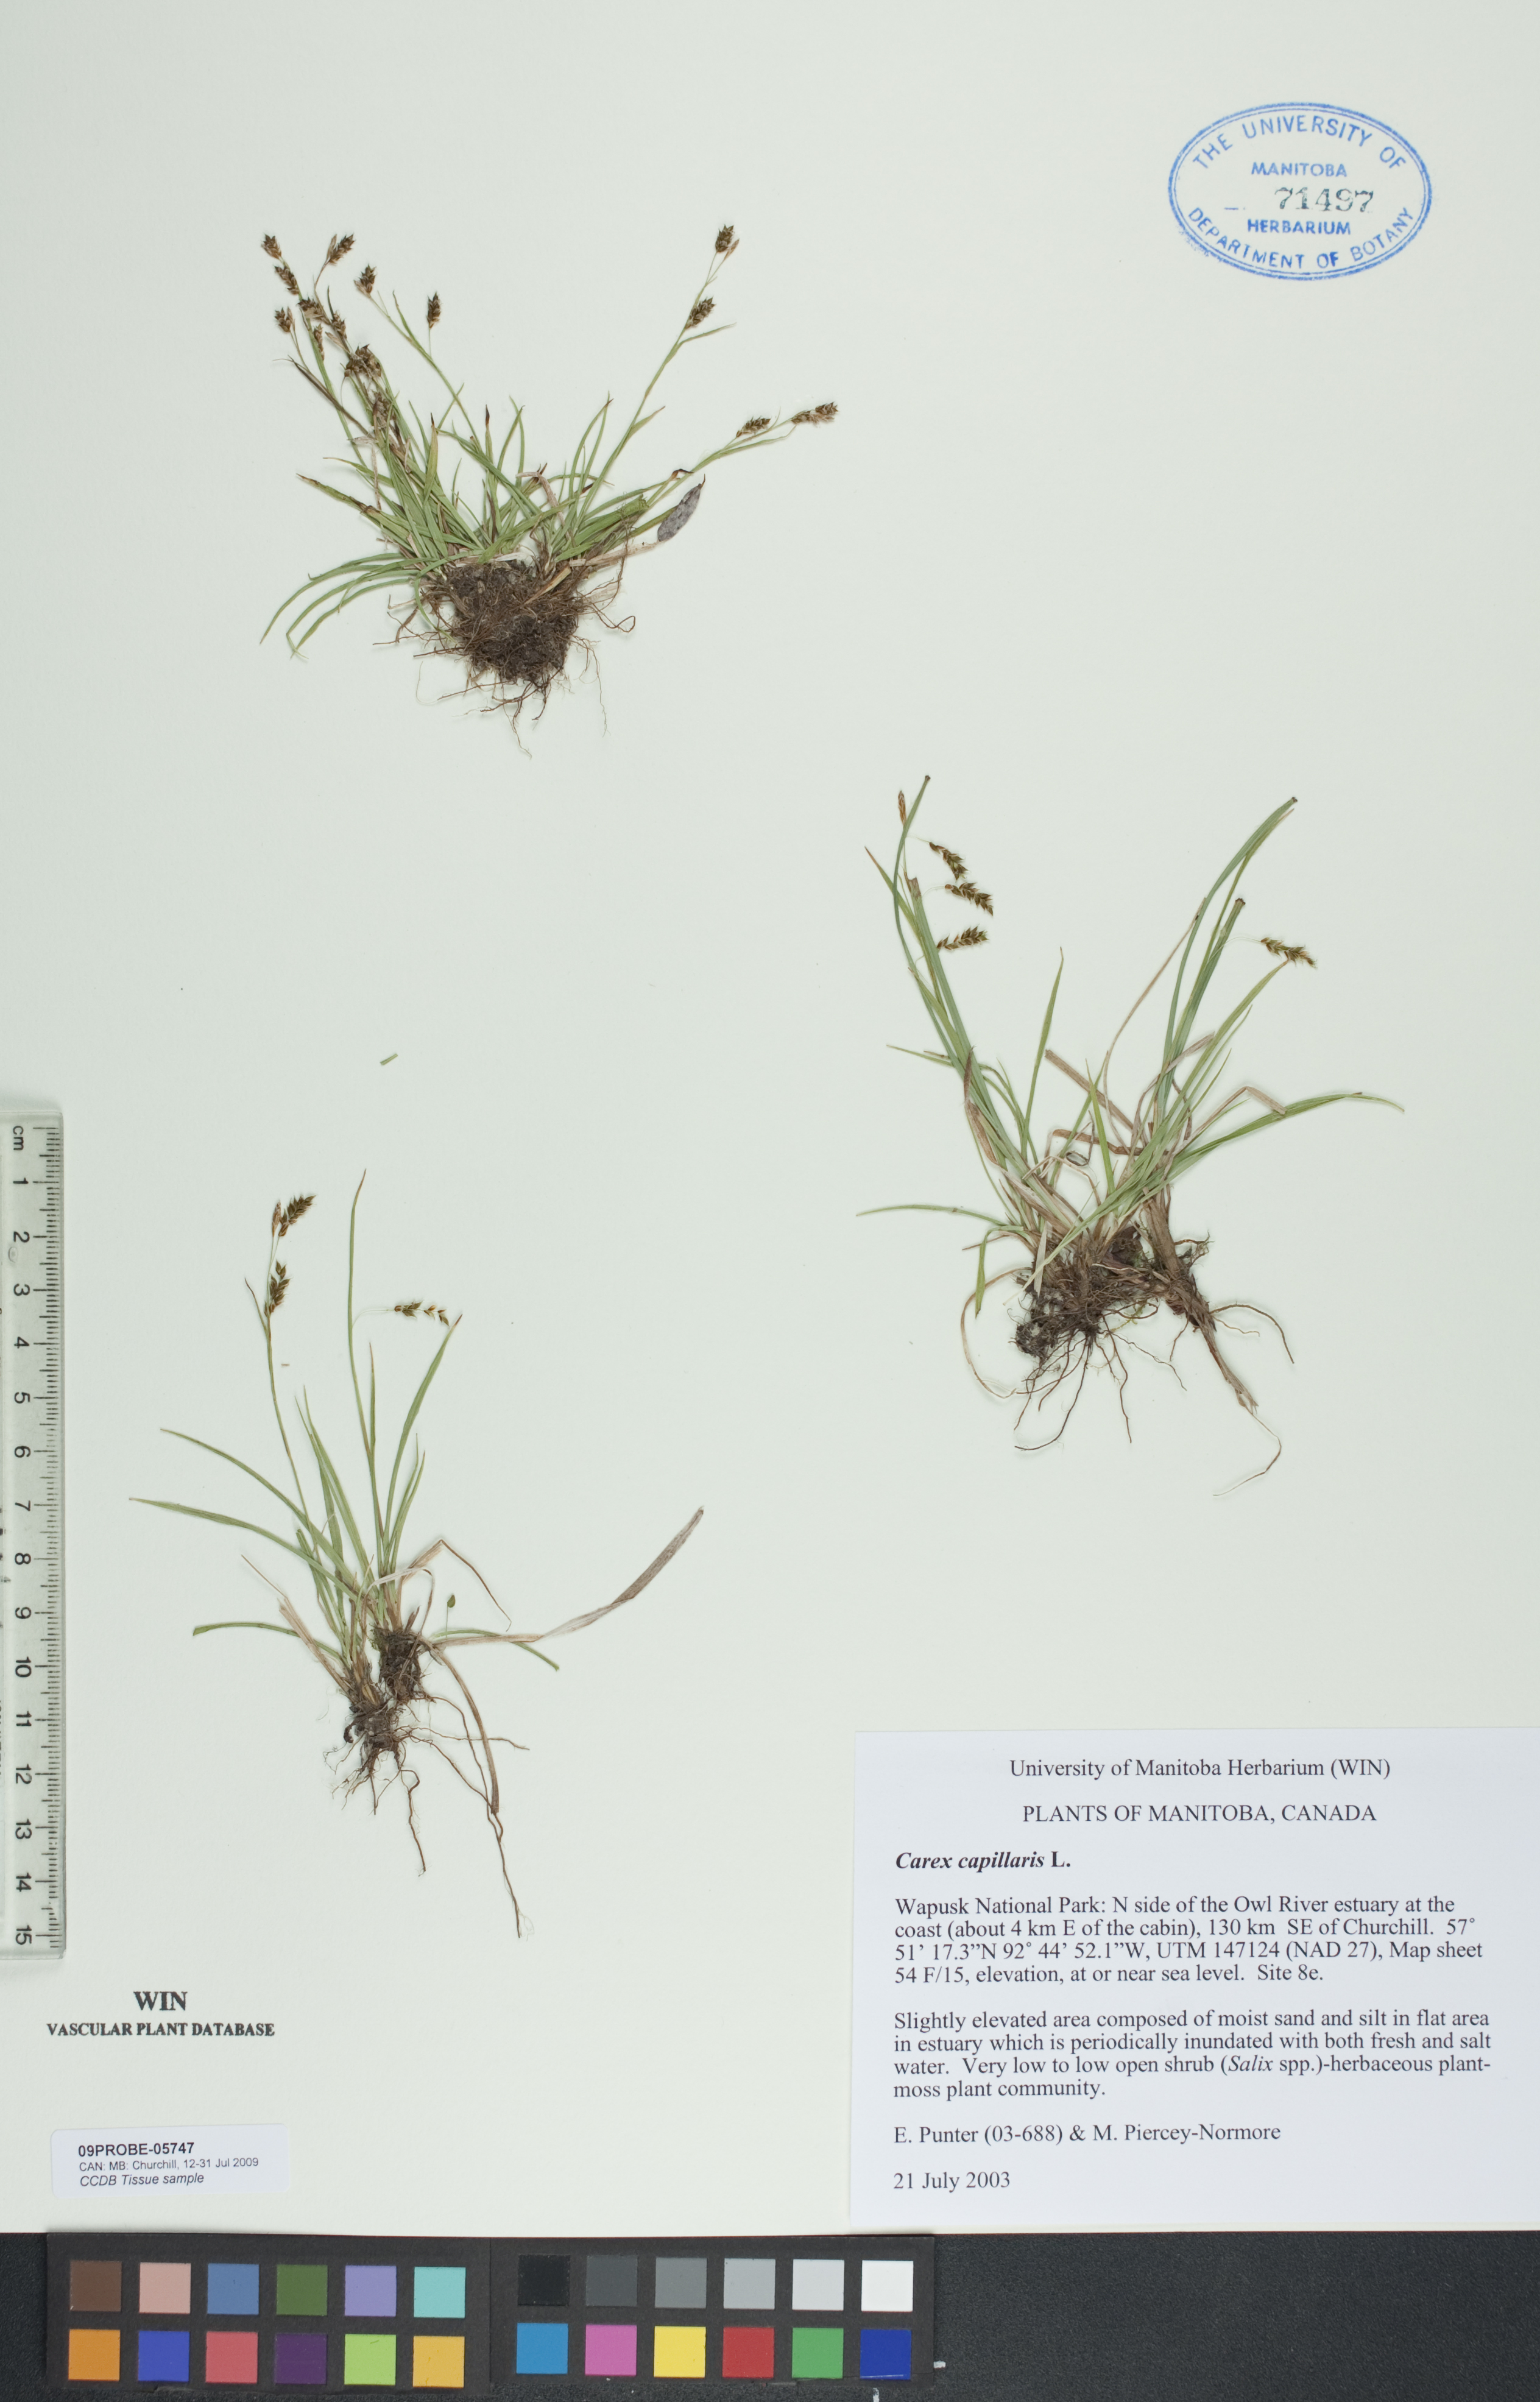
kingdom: Plantae
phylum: Tracheophyta
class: Liliopsida
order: Poales
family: Cyperaceae
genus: Carex
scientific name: Carex capillaris
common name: Hair sedge
